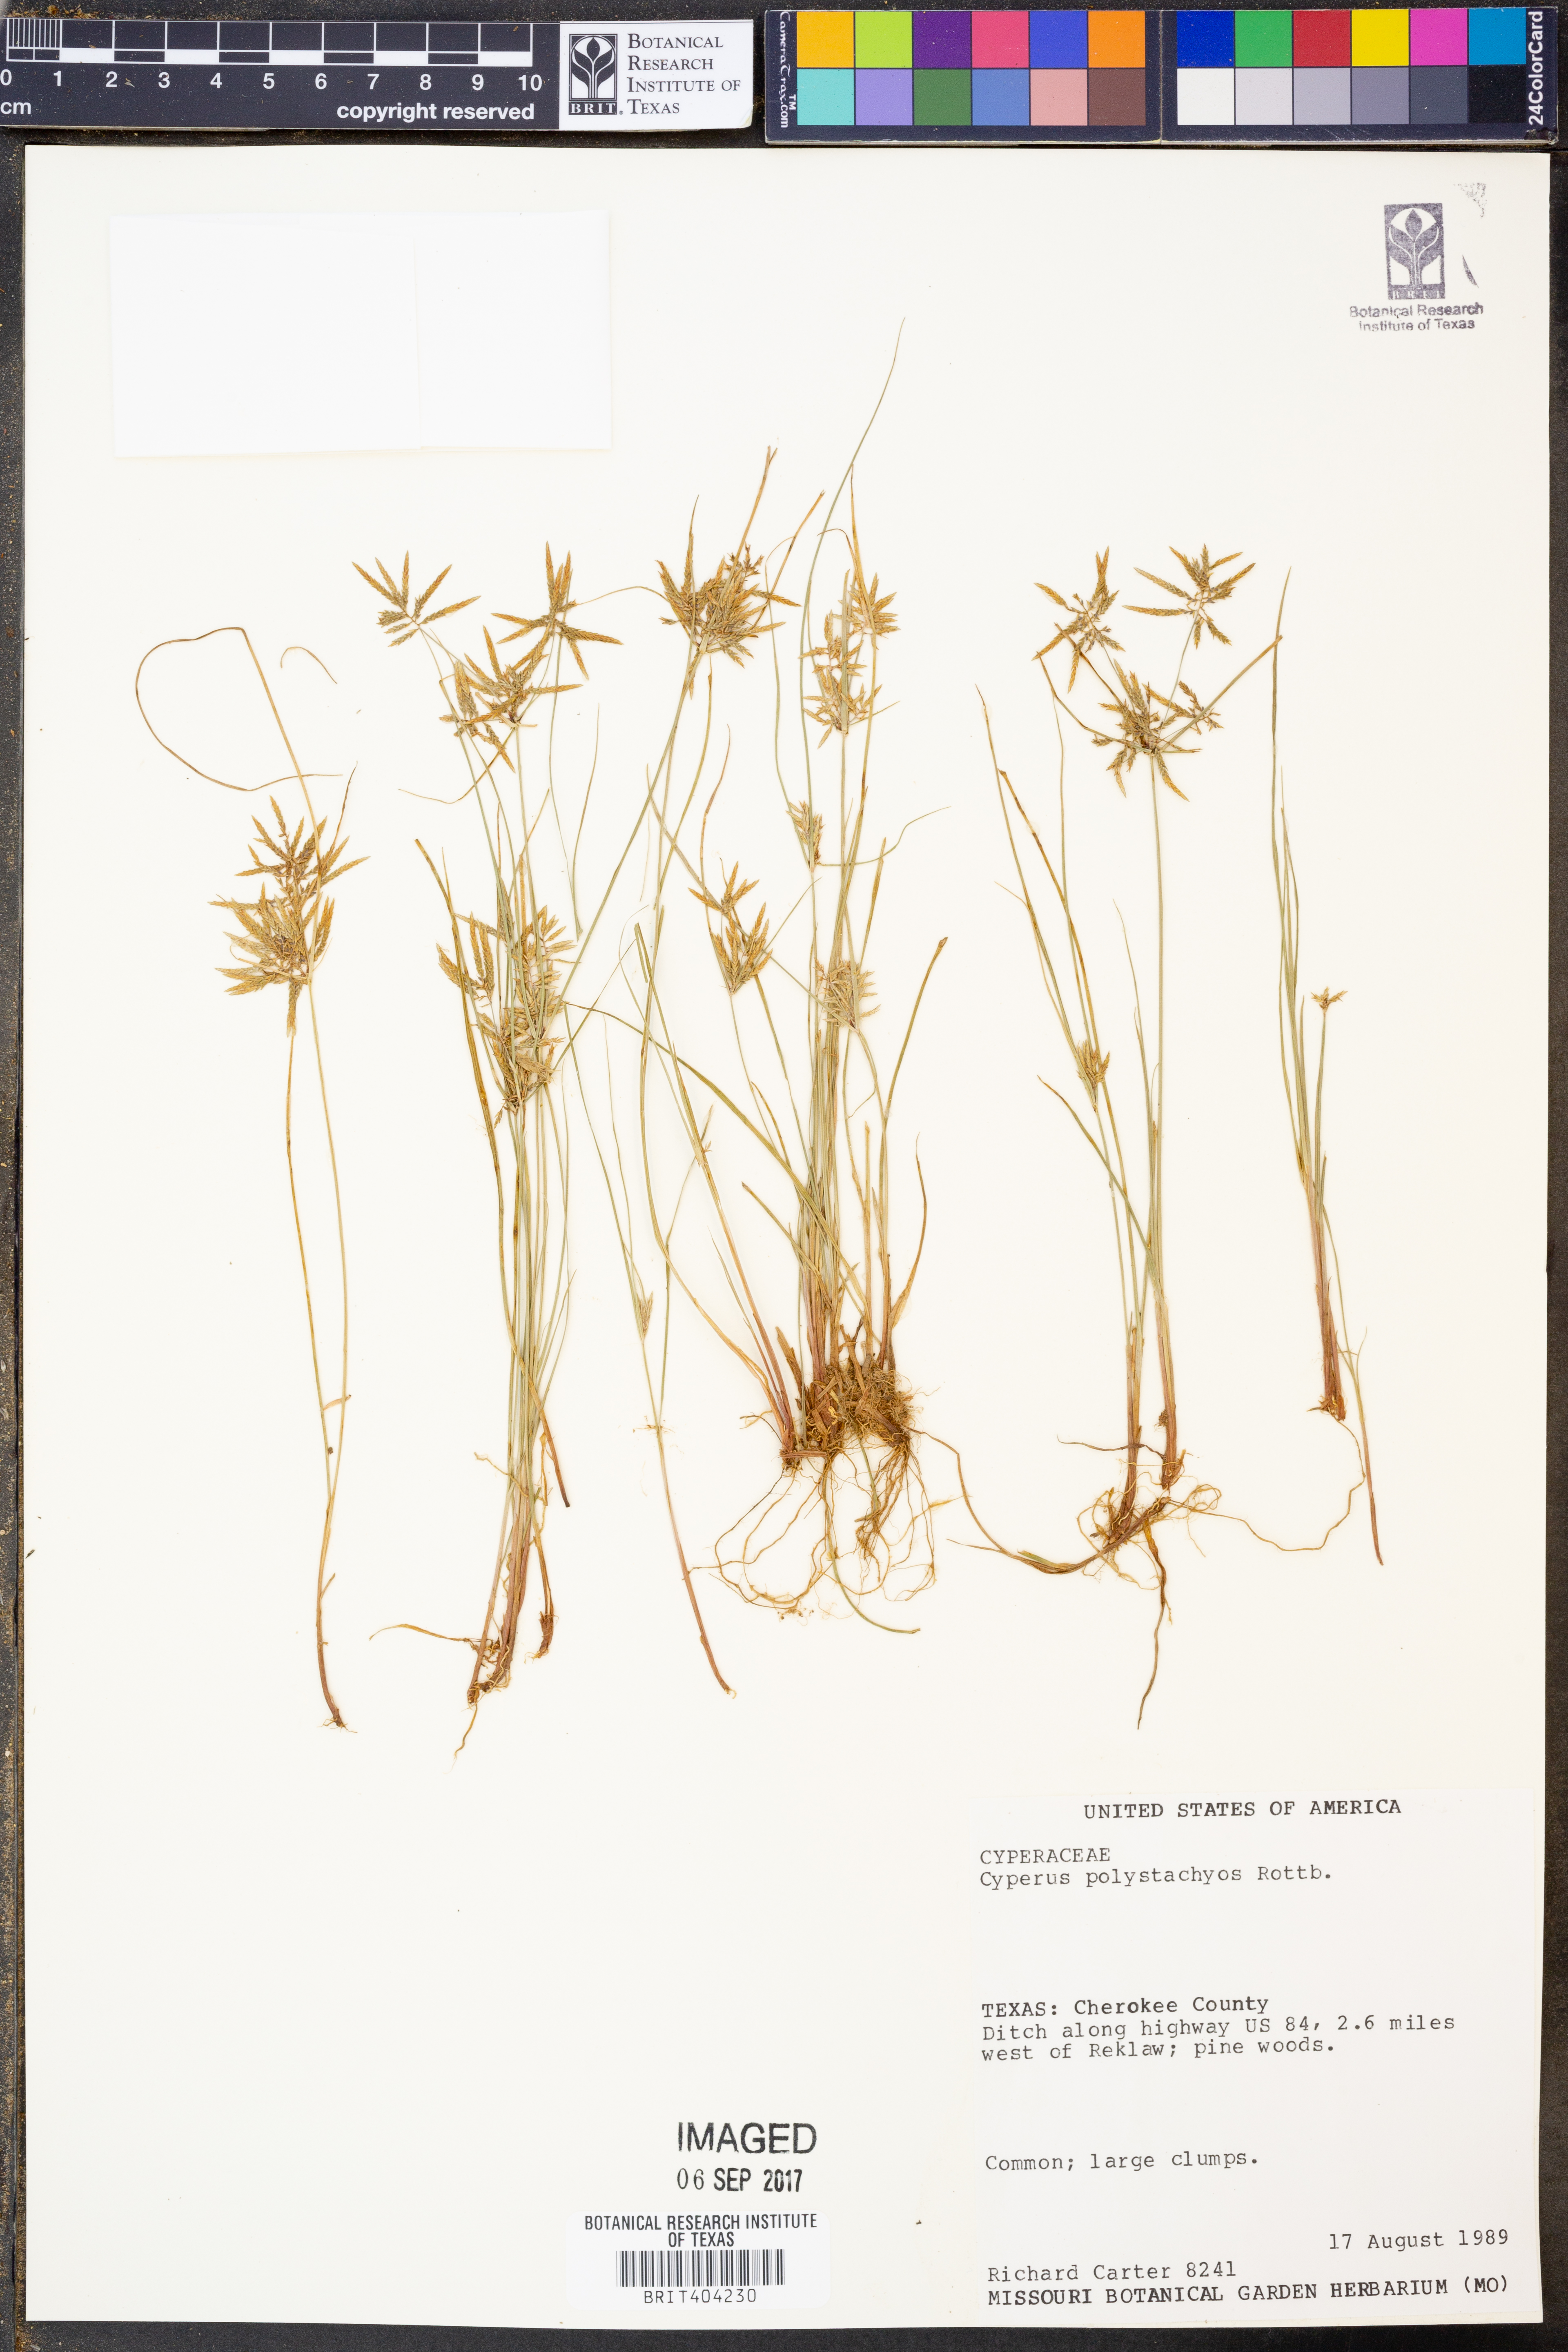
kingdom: Plantae
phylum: Tracheophyta
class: Liliopsida
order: Poales
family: Cyperaceae
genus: Cyperus
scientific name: Cyperus polystachyos
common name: Bunchy flat sedge
